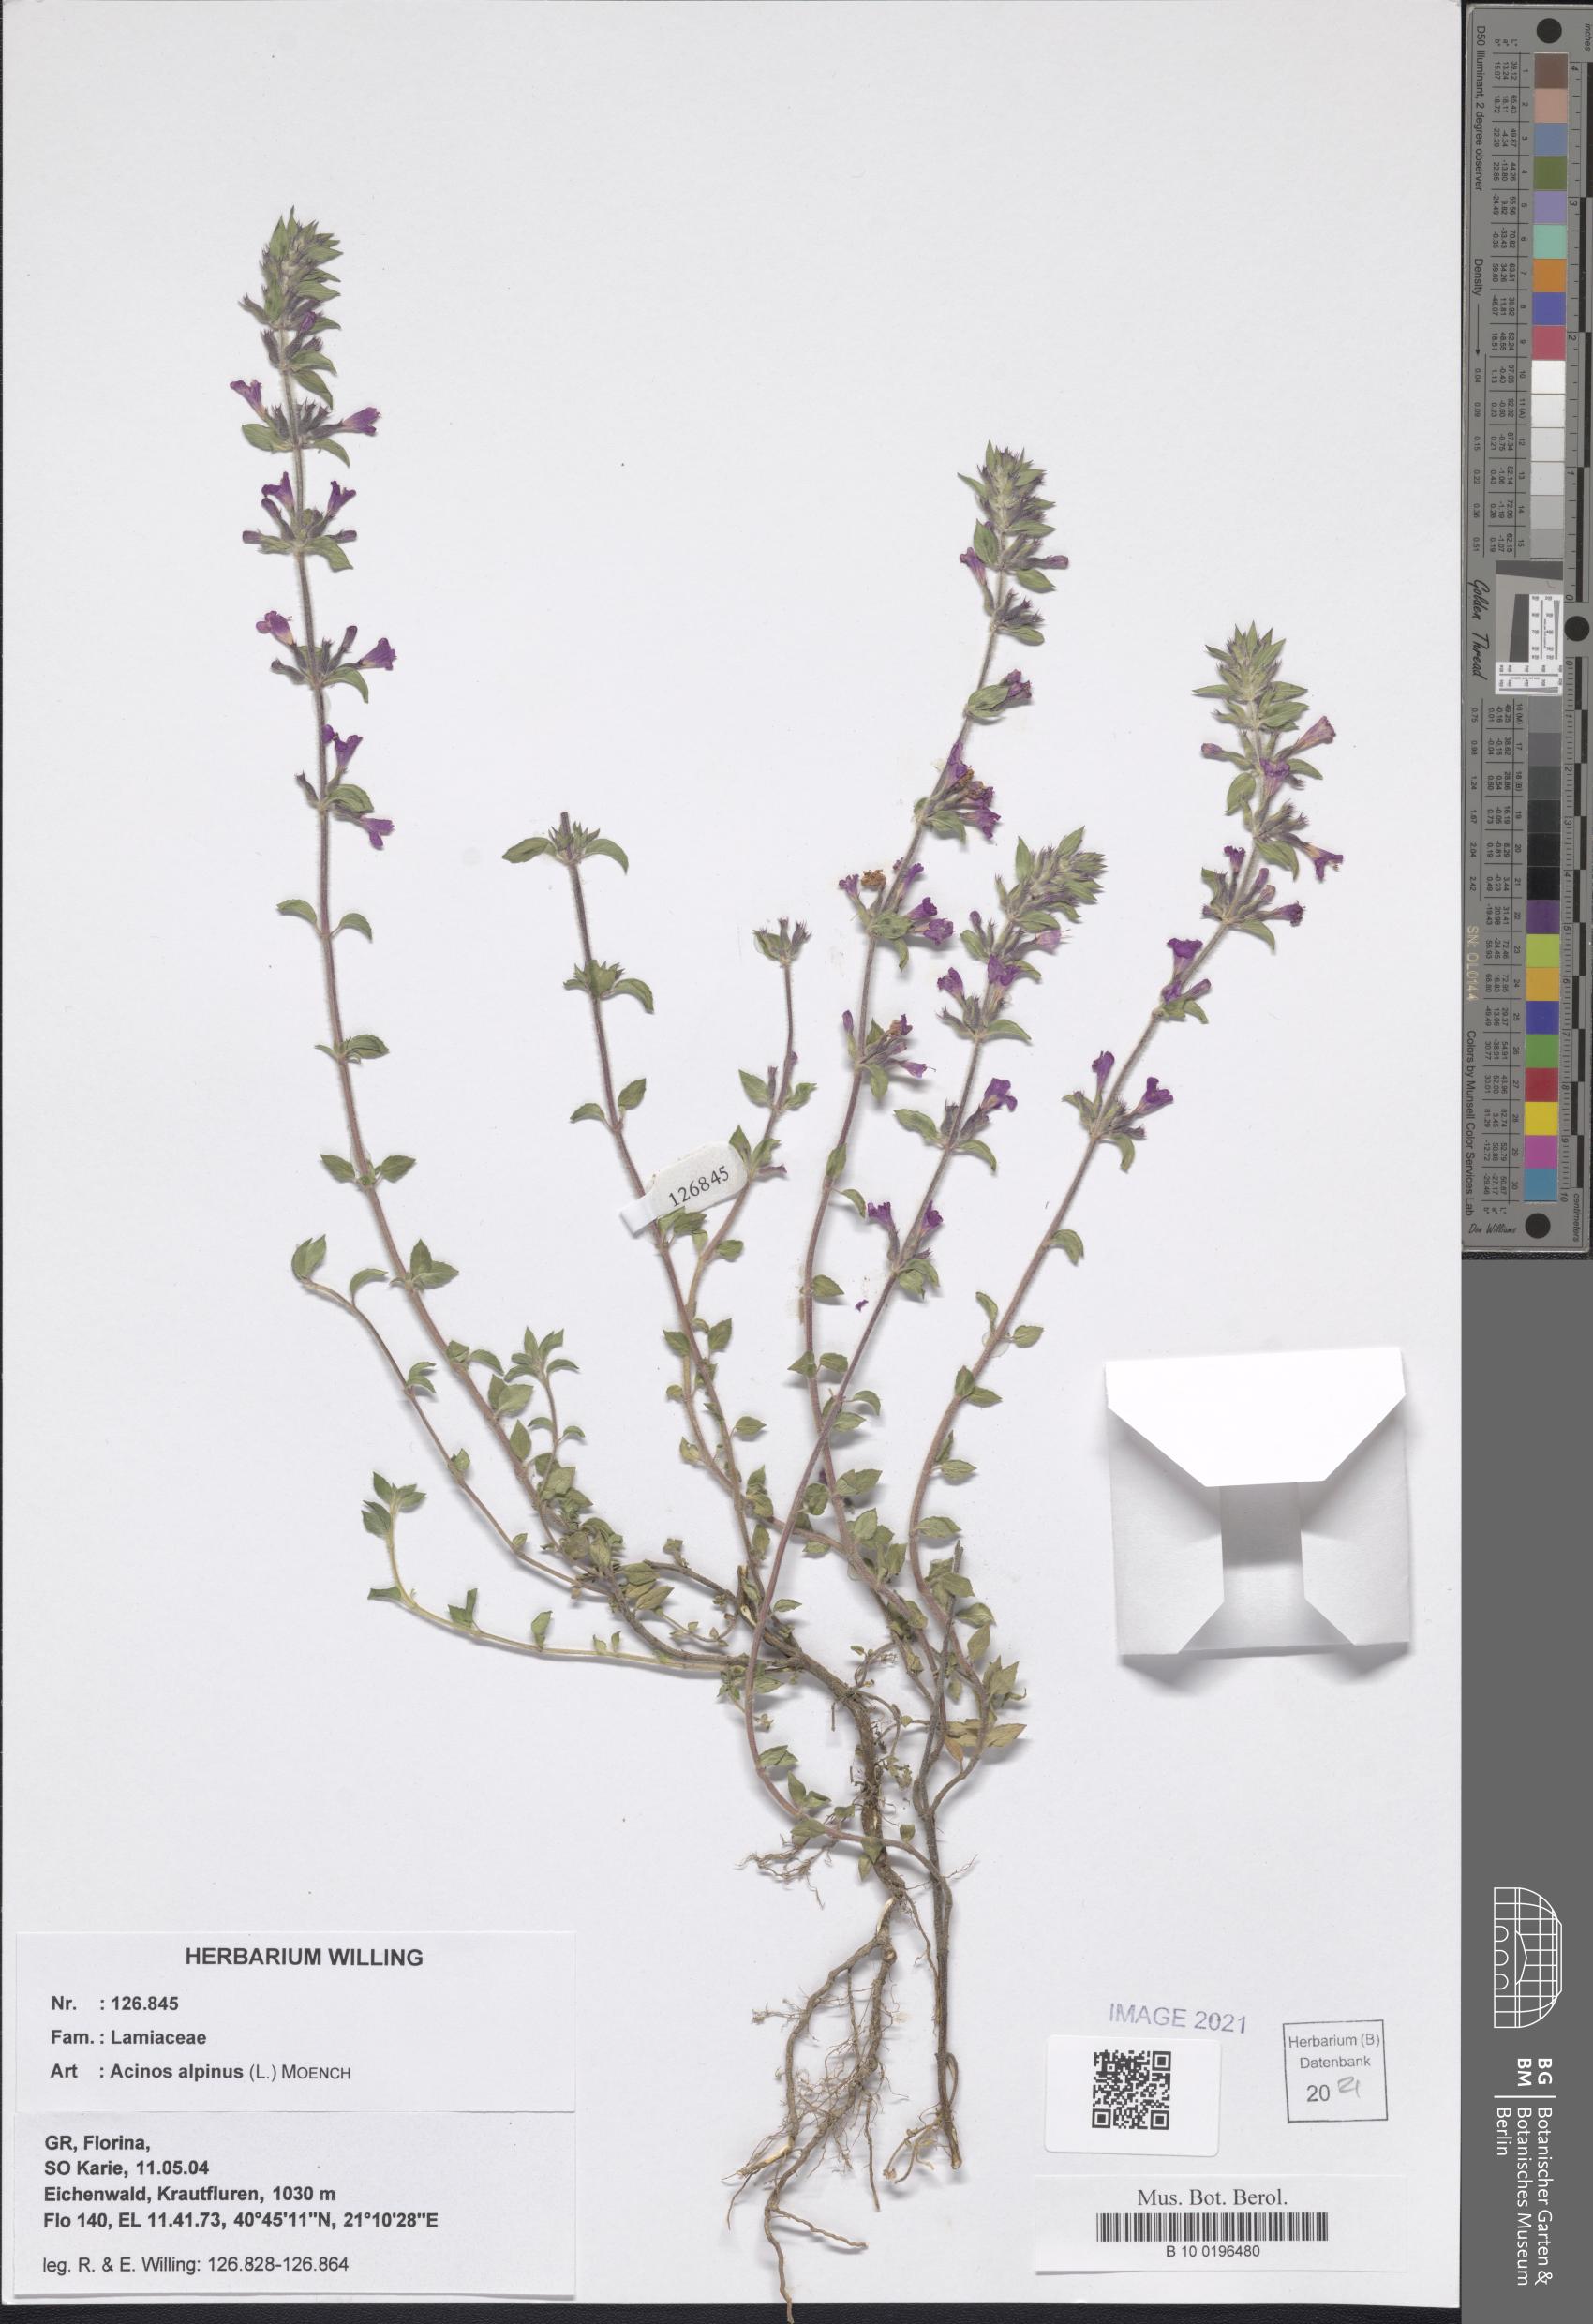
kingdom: Plantae
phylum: Tracheophyta
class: Magnoliopsida
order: Lamiales
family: Lamiaceae
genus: Clinopodium
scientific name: Clinopodium alpinum
